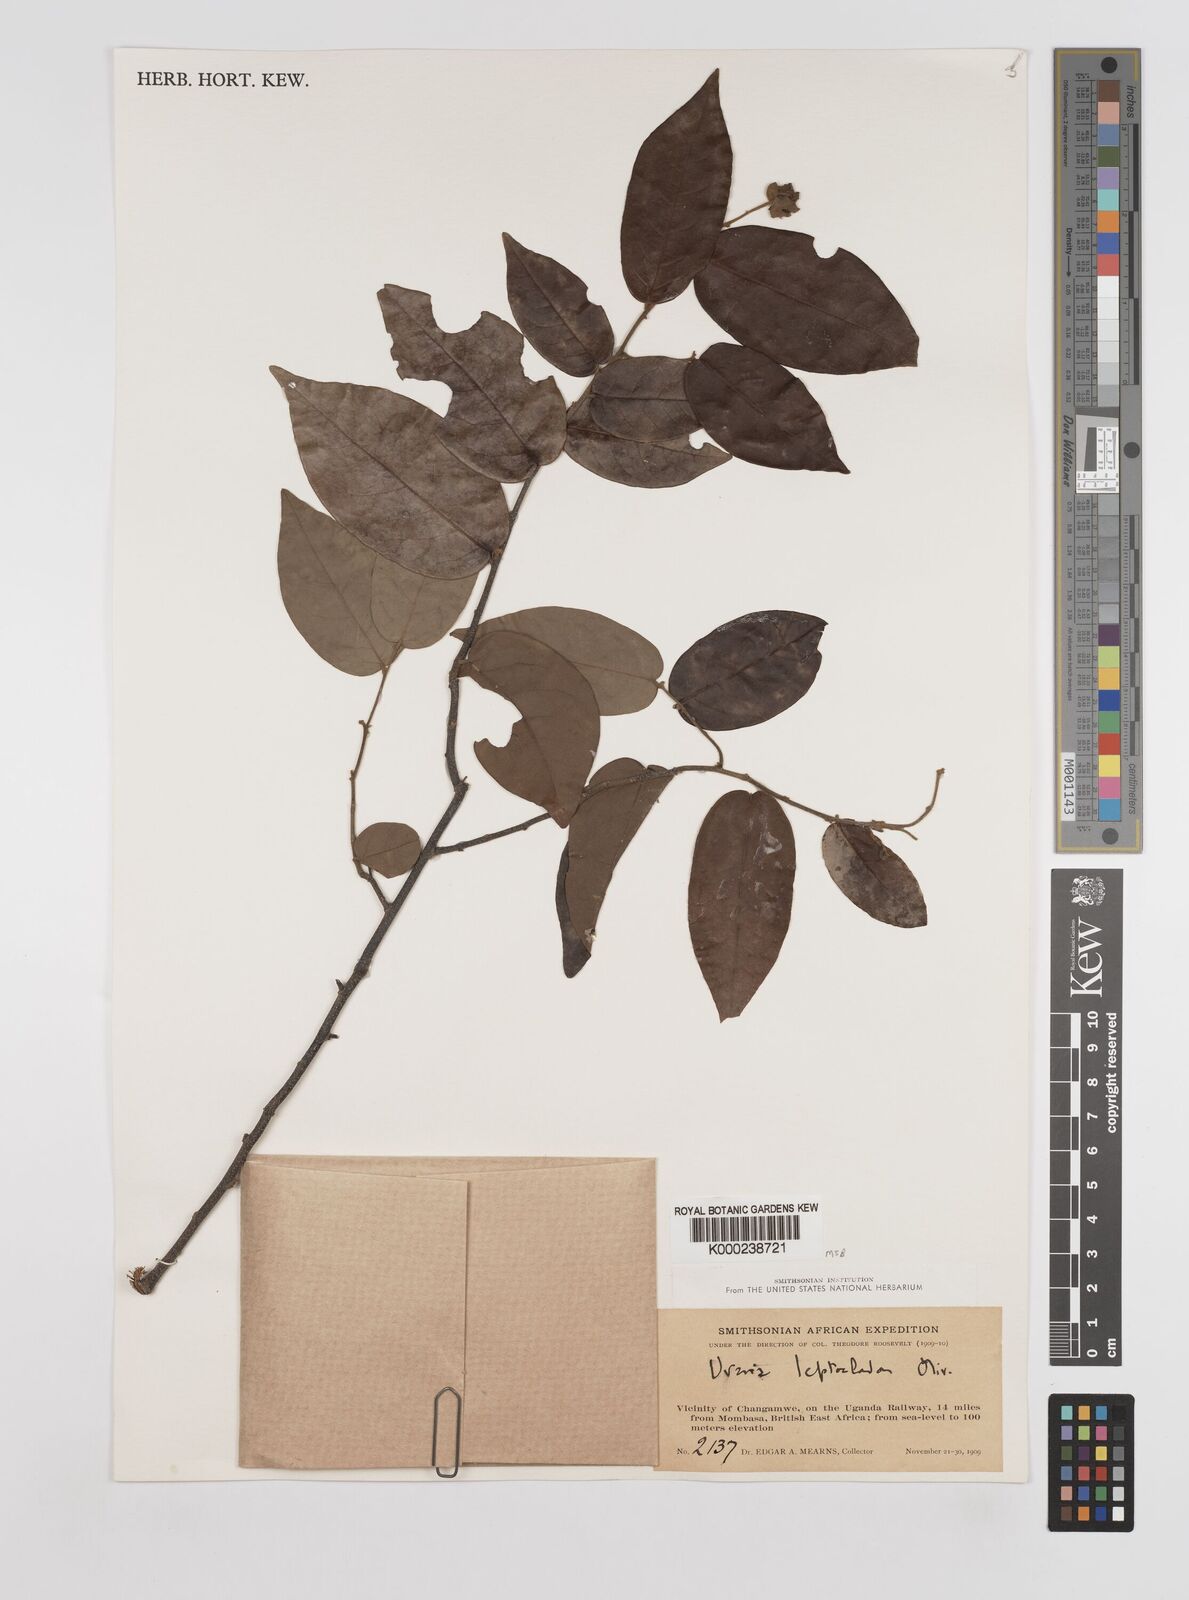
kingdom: Plantae
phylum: Tracheophyta
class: Magnoliopsida
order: Magnoliales
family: Annonaceae
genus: Uvaria
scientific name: Uvaria leptocladon
